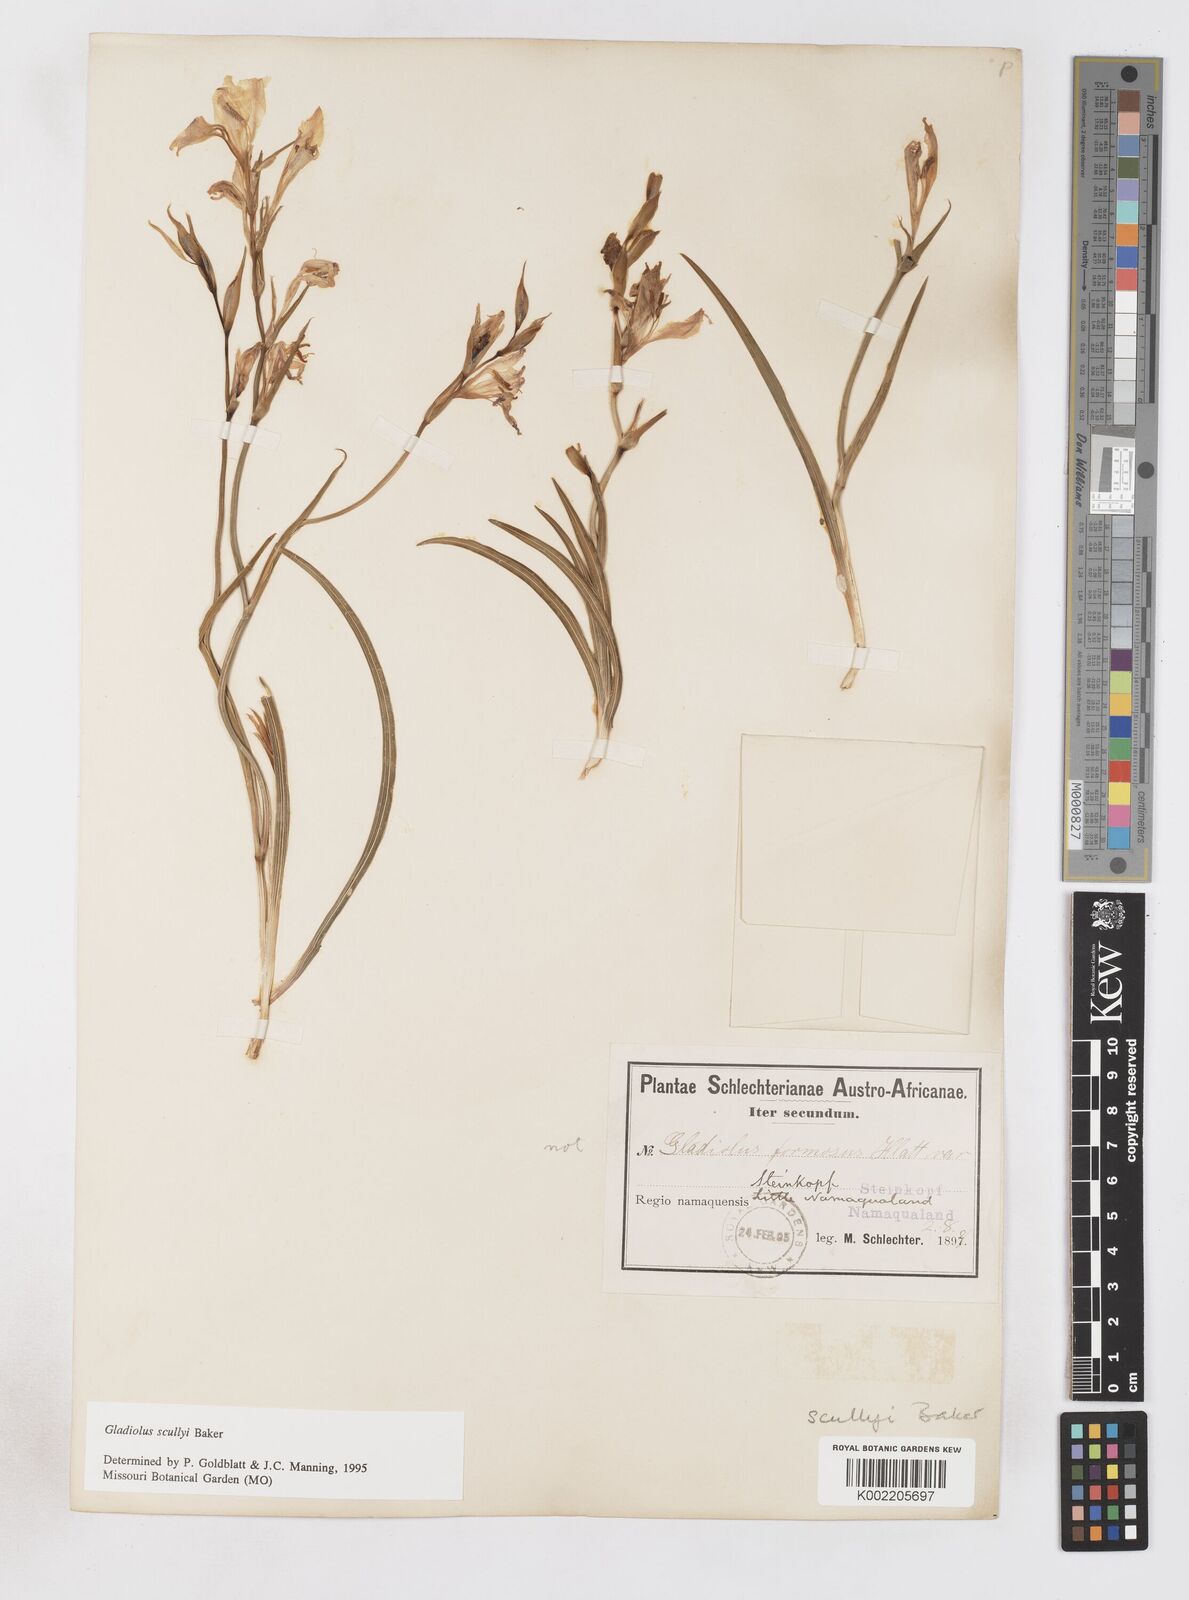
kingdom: Plantae
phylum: Tracheophyta
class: Liliopsida
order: Asparagales
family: Iridaceae
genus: Gladiolus
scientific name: Gladiolus scullyi
